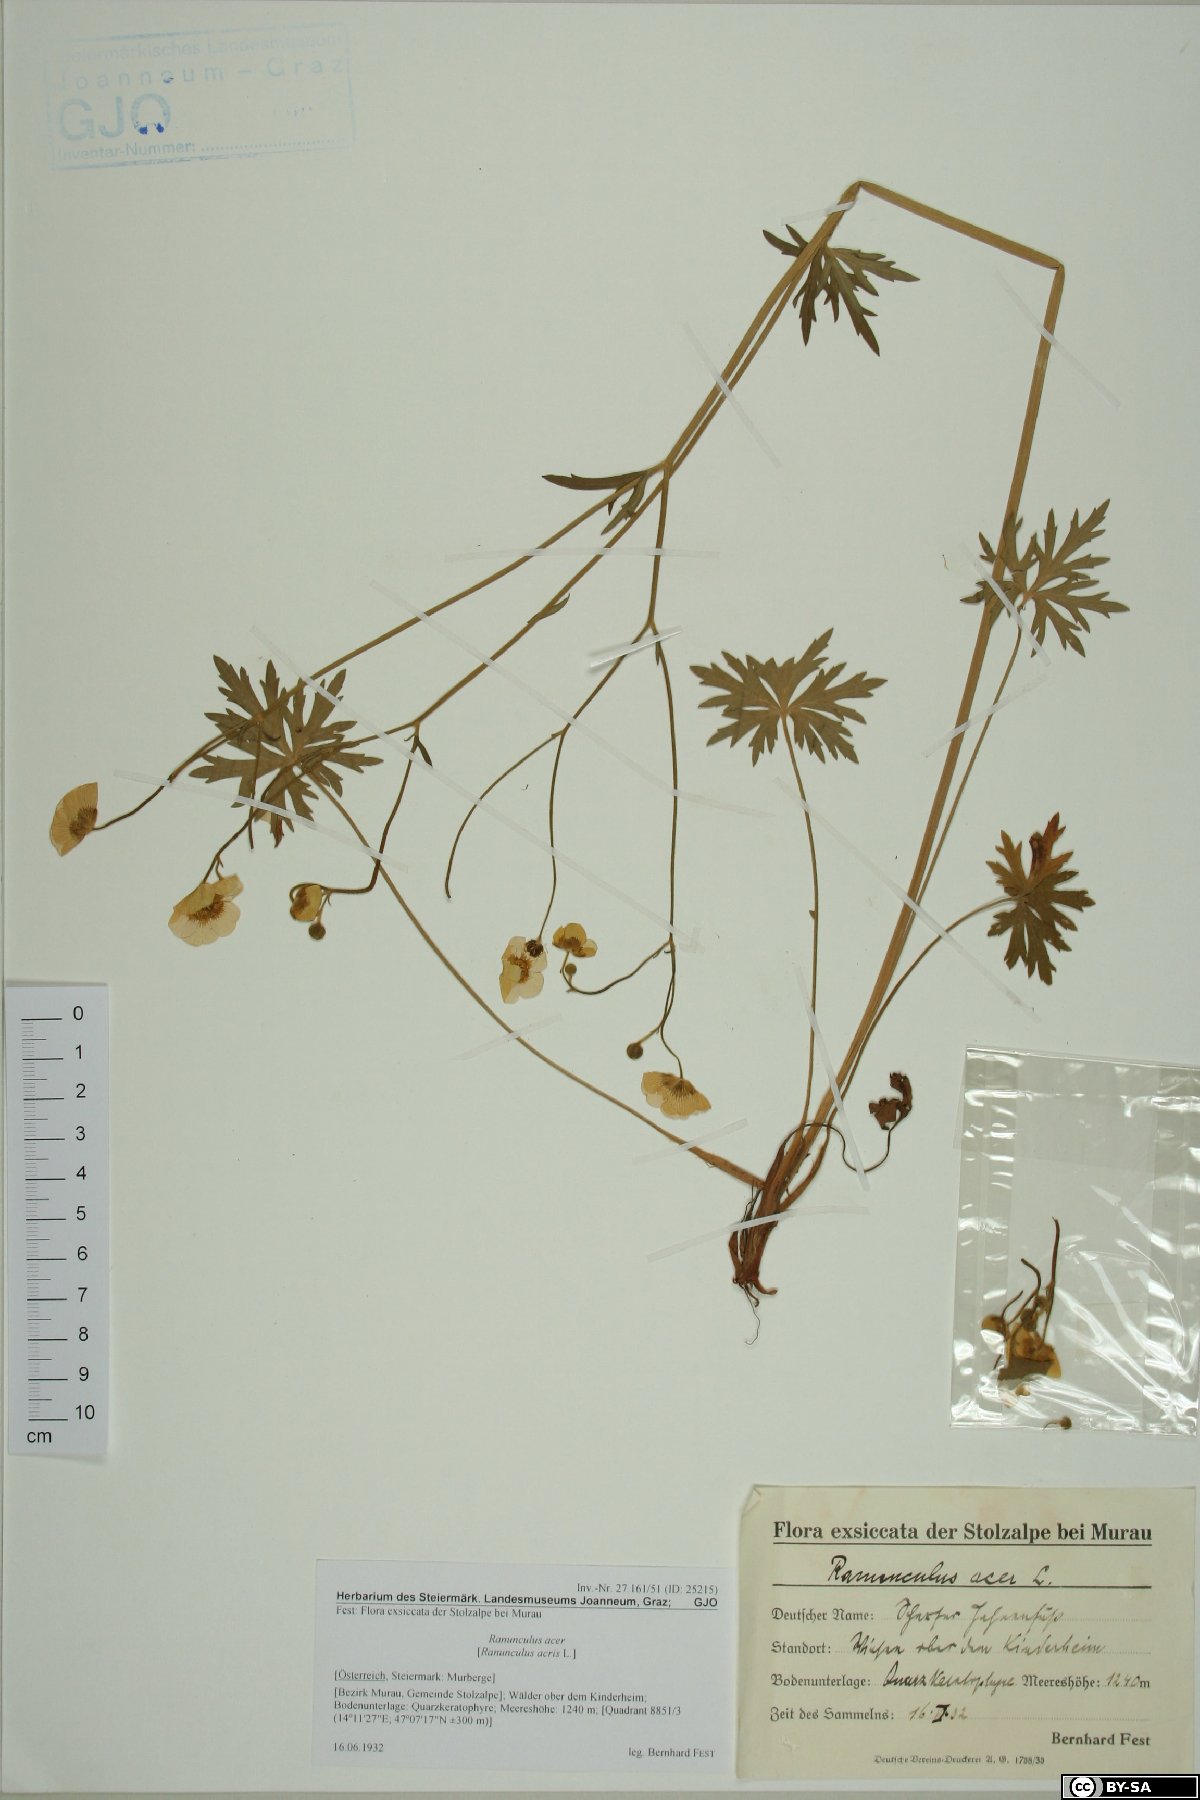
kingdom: Plantae
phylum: Tracheophyta
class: Magnoliopsida
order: Ranunculales
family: Ranunculaceae
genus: Ranunculus
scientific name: Ranunculus acris
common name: Meadow buttercup
